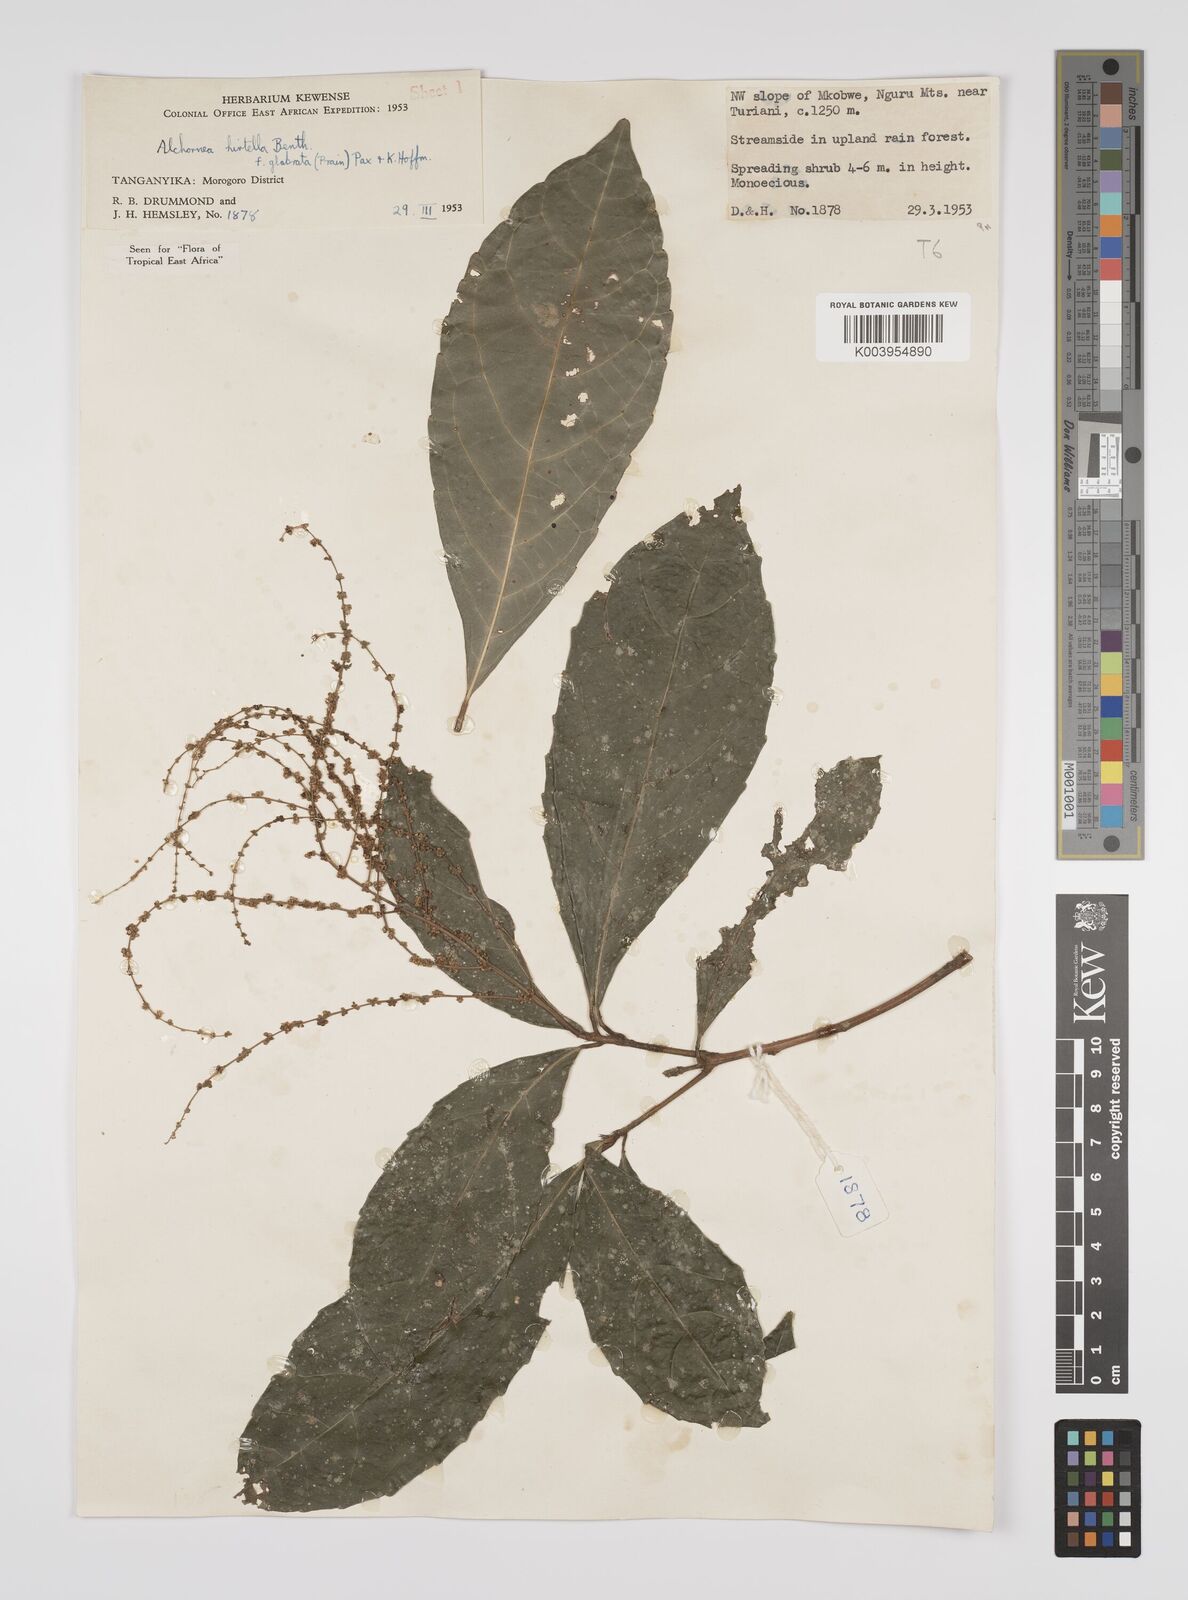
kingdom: Plantae
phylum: Tracheophyta
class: Magnoliopsida
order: Malpighiales
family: Euphorbiaceae
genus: Alchornea
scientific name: Alchornea hirtella
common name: Forest bead-string
